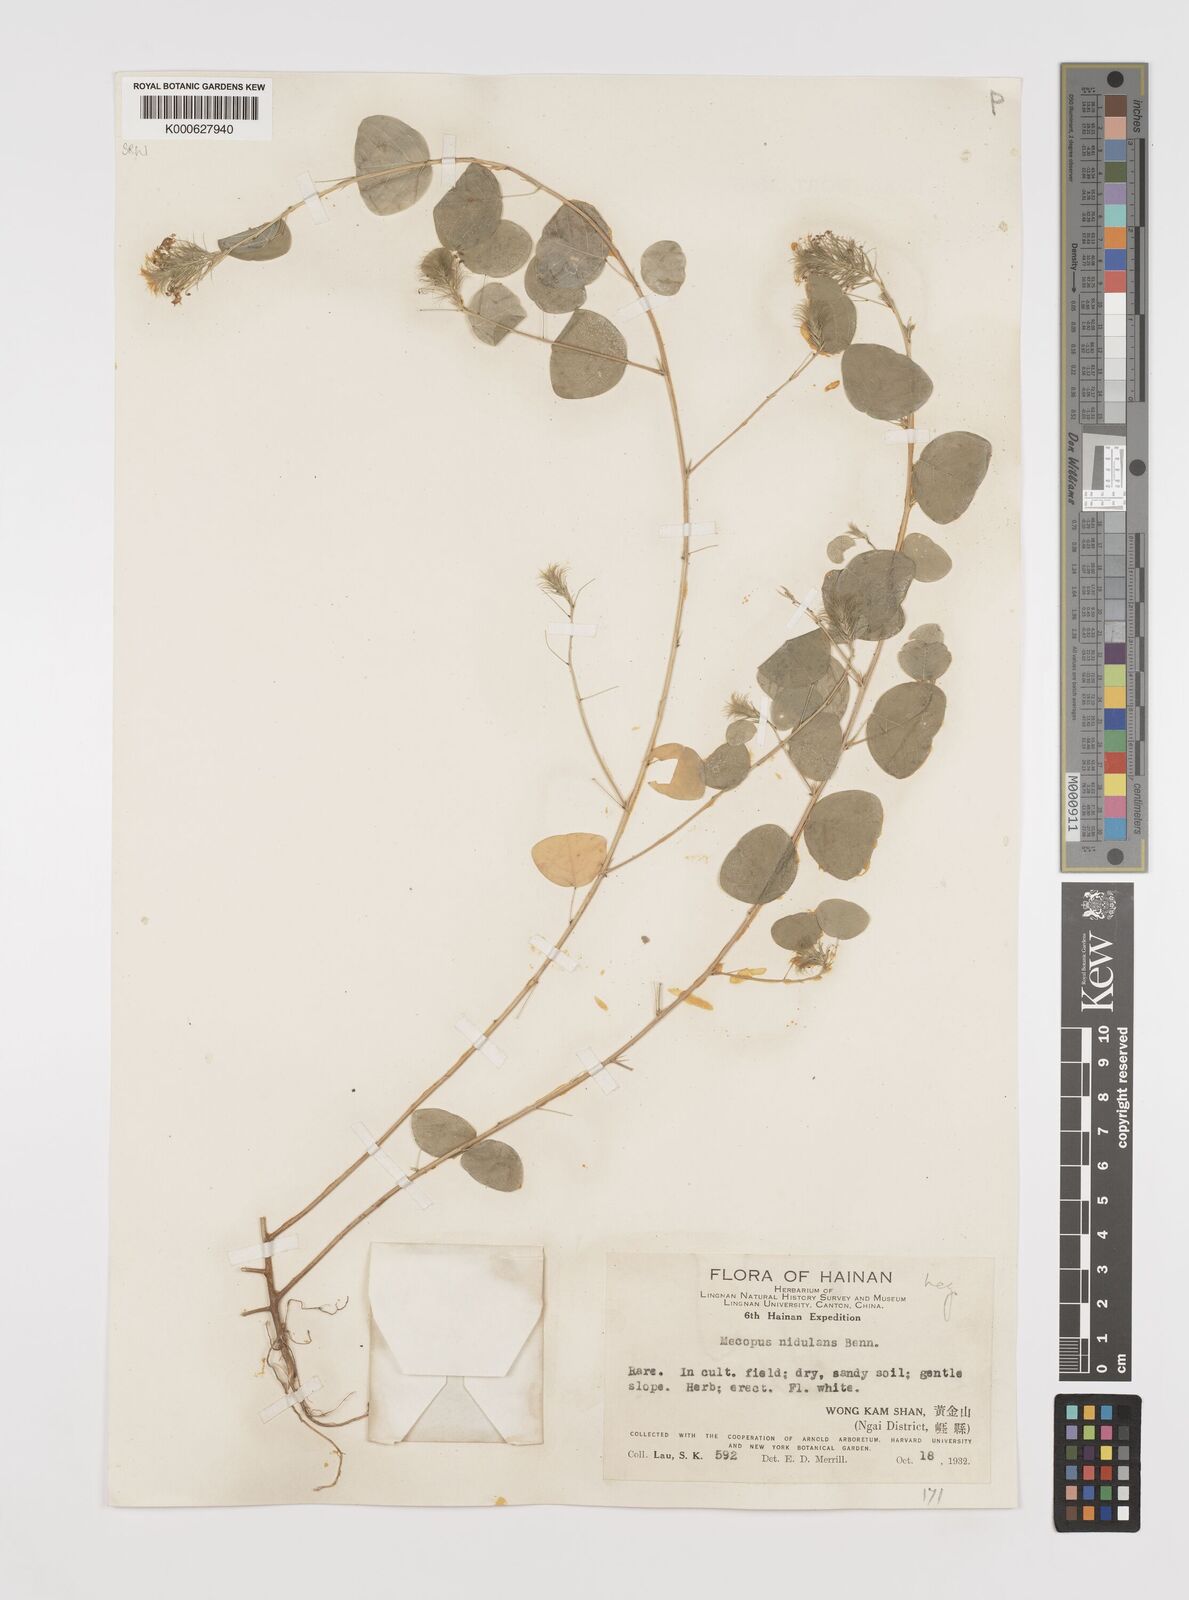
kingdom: Plantae
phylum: Tracheophyta
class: Magnoliopsida
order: Fabales
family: Fabaceae
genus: Mecopus
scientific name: Mecopus nidulans
